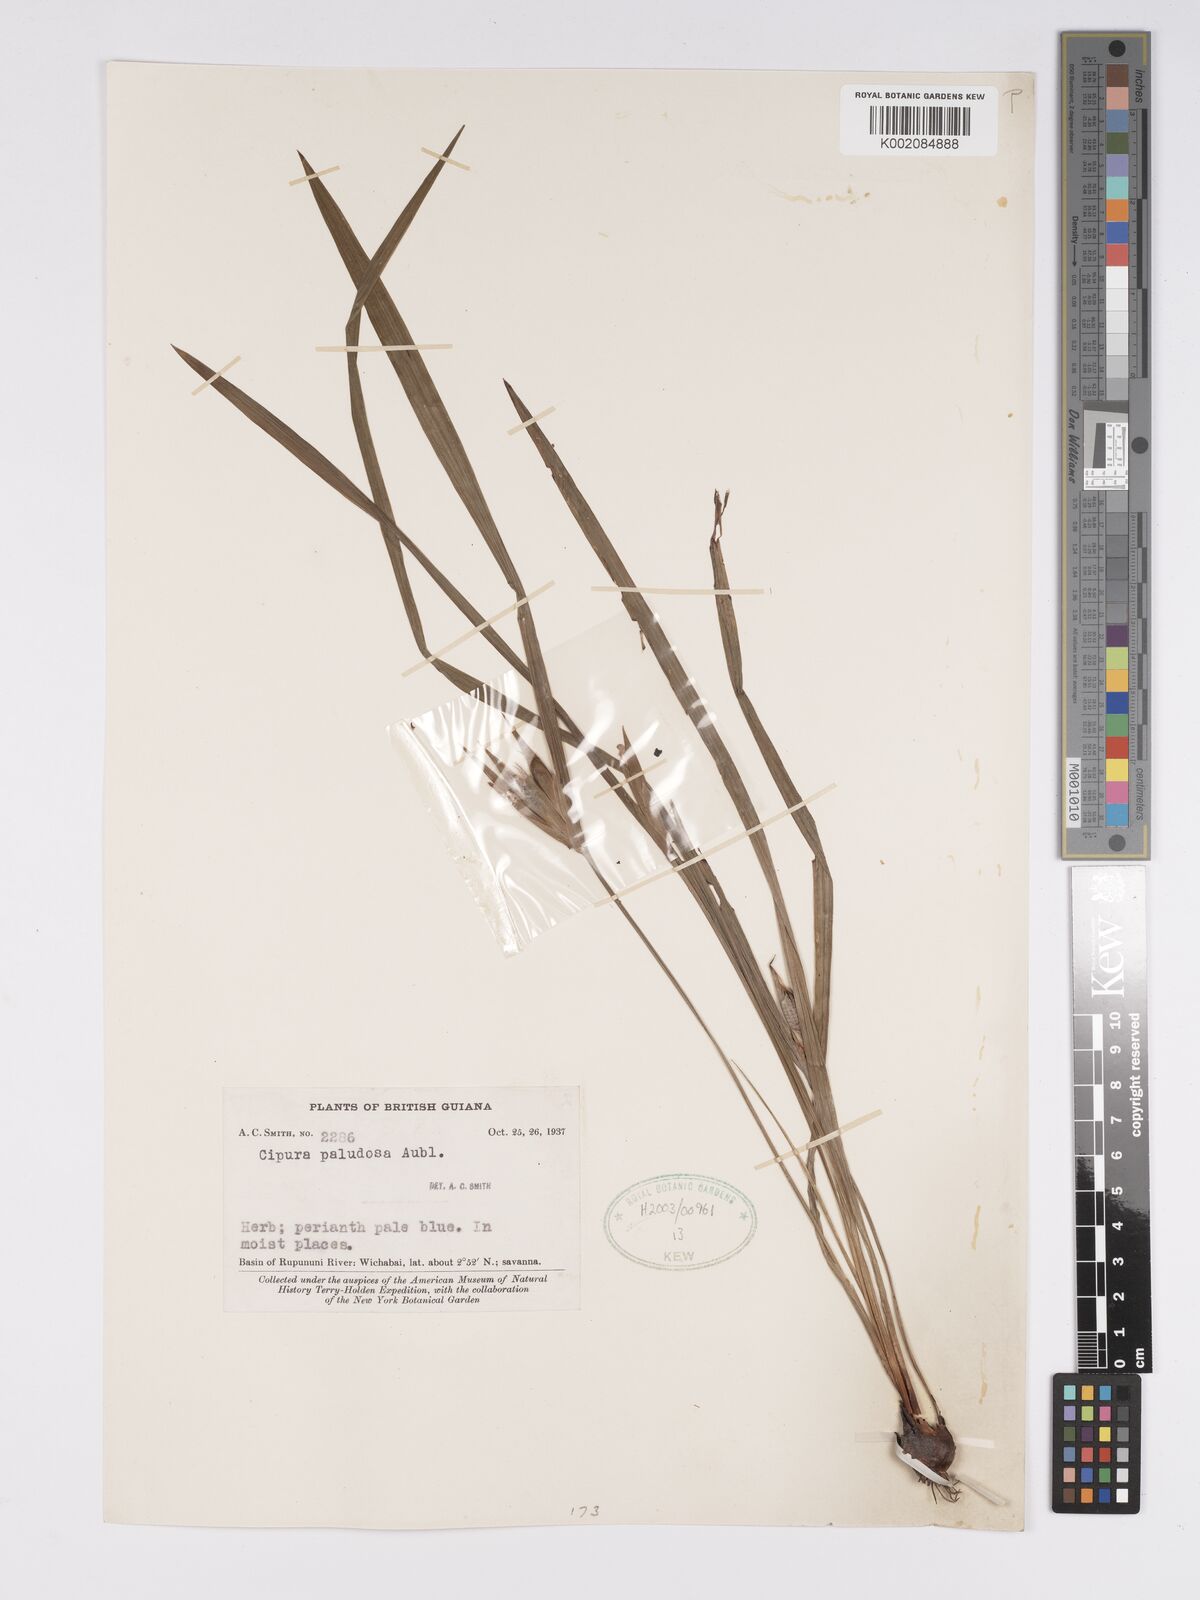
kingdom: Plantae
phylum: Tracheophyta
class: Liliopsida
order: Asparagales
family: Iridaceae
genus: Cipura
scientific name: Cipura paludosa
